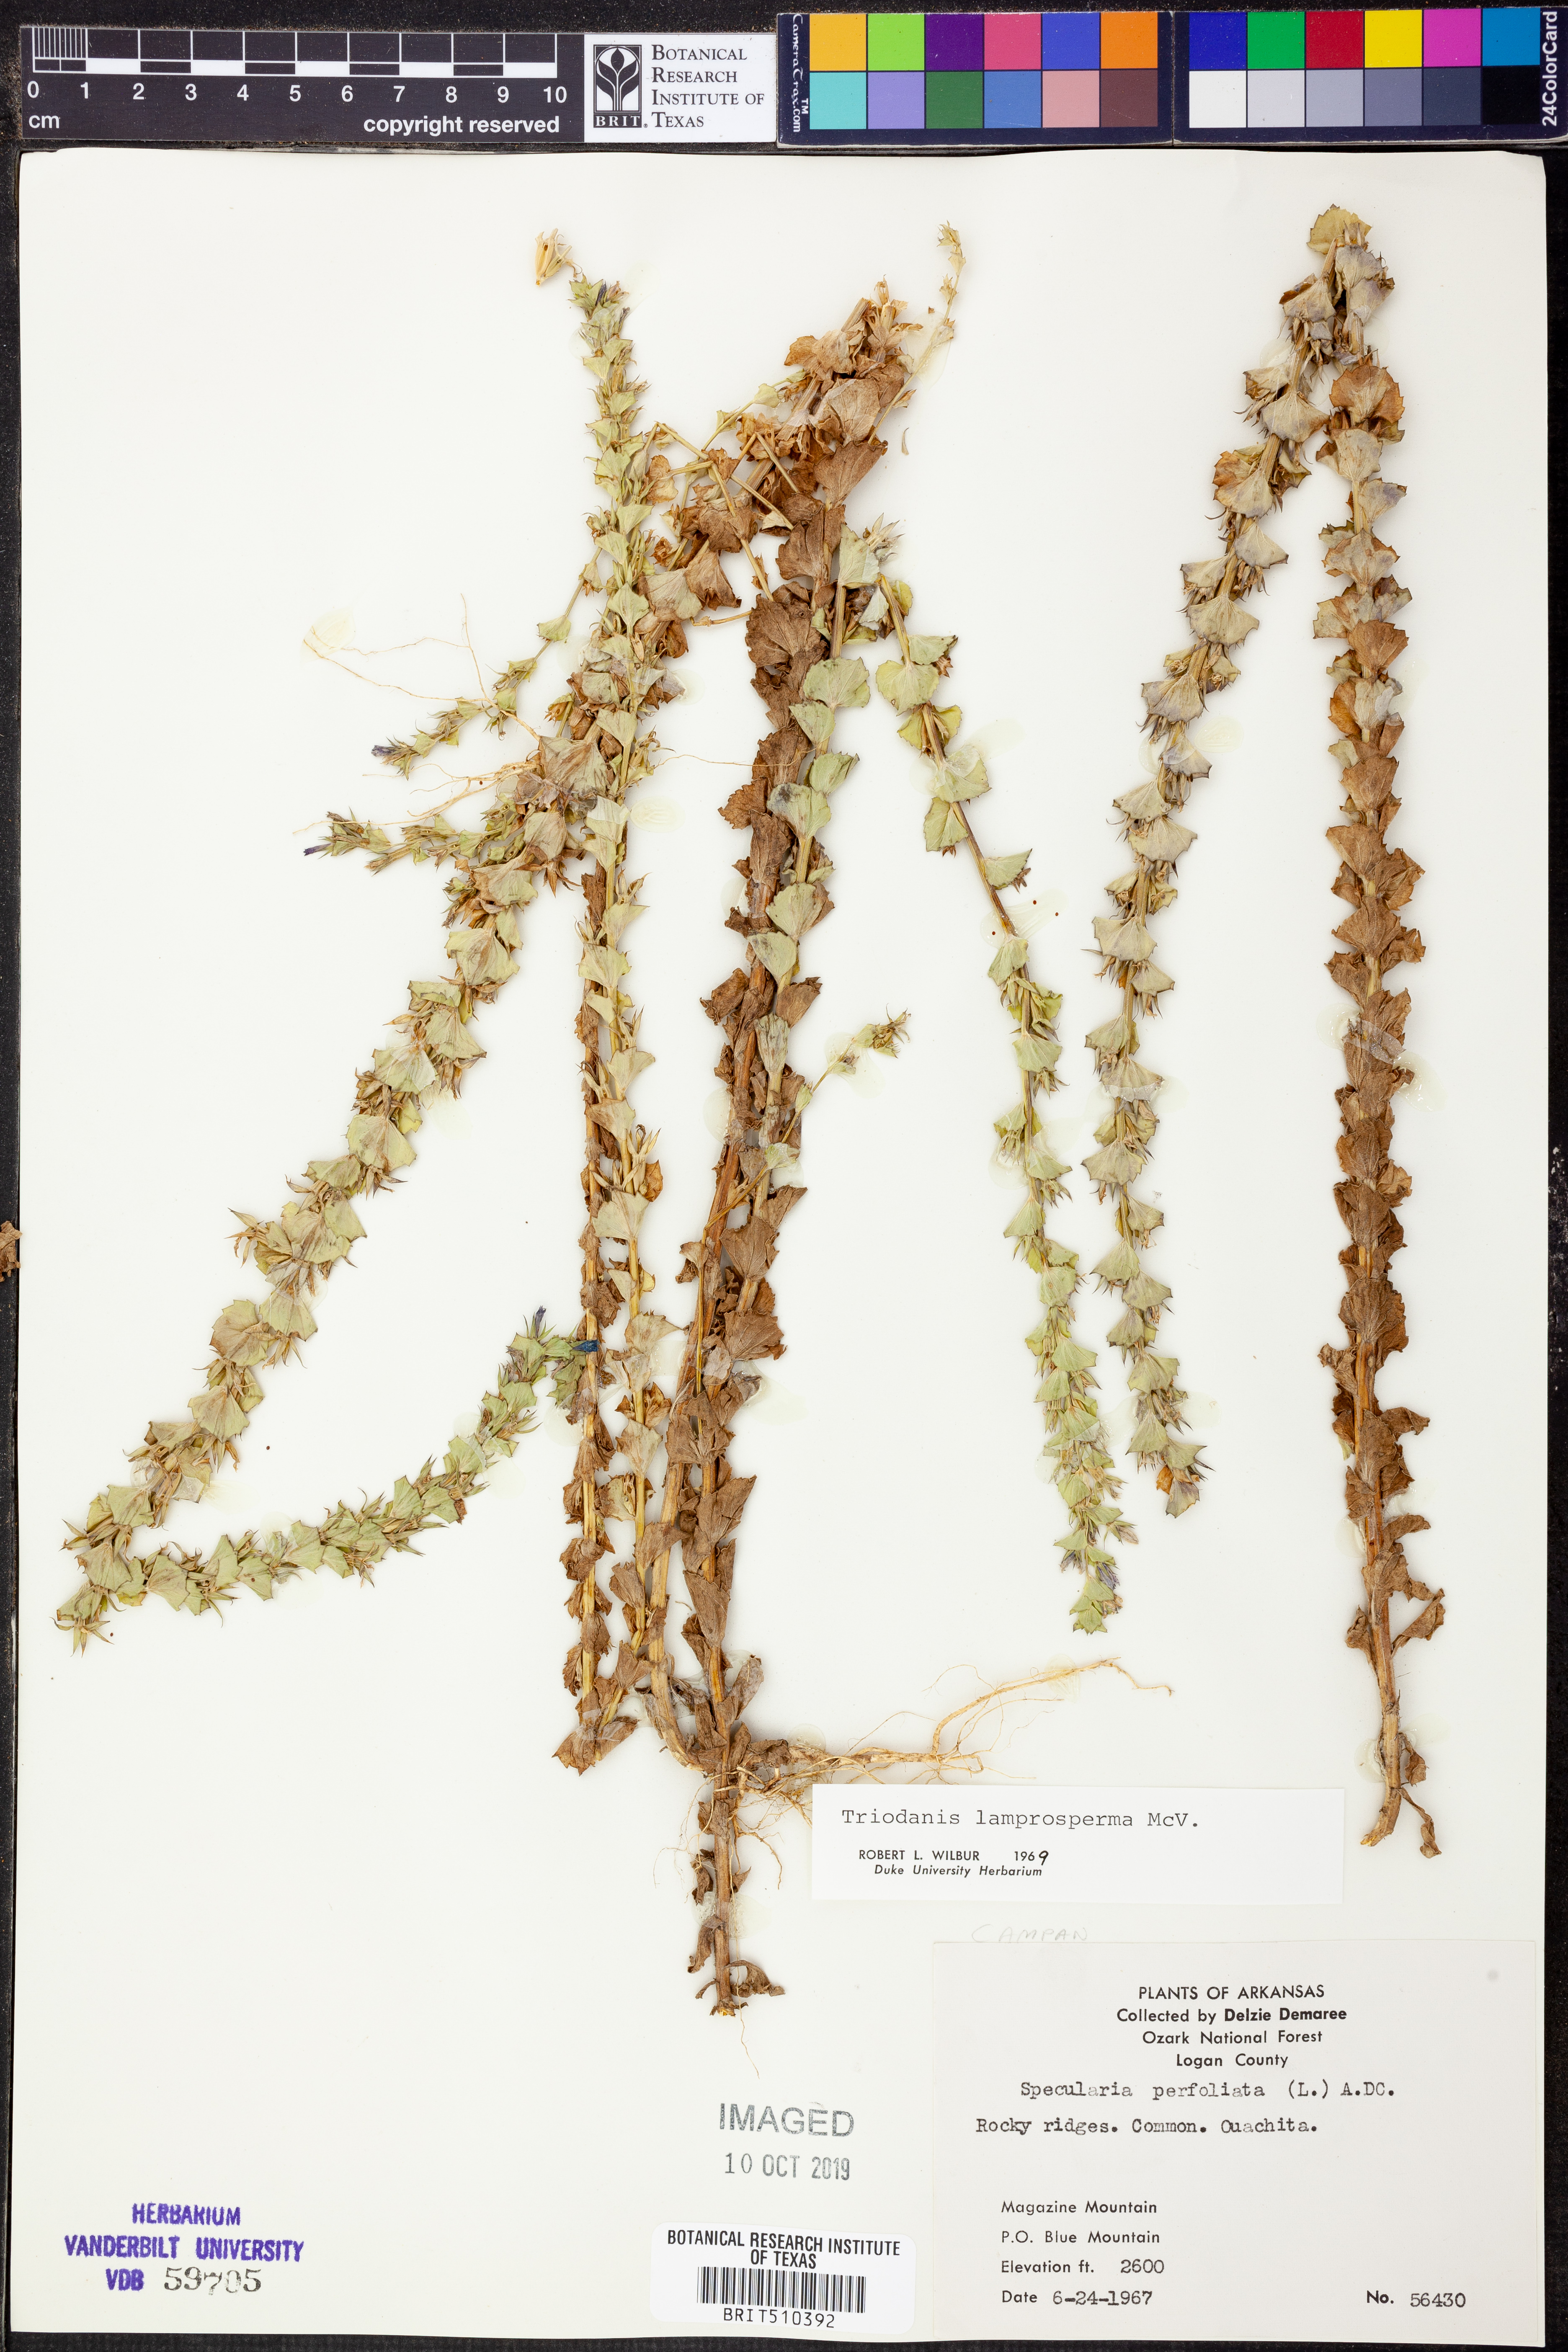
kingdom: Plantae
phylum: Tracheophyta
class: Magnoliopsida
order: Asterales
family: Campanulaceae
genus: Triodanis
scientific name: Triodanis lamprosperma
